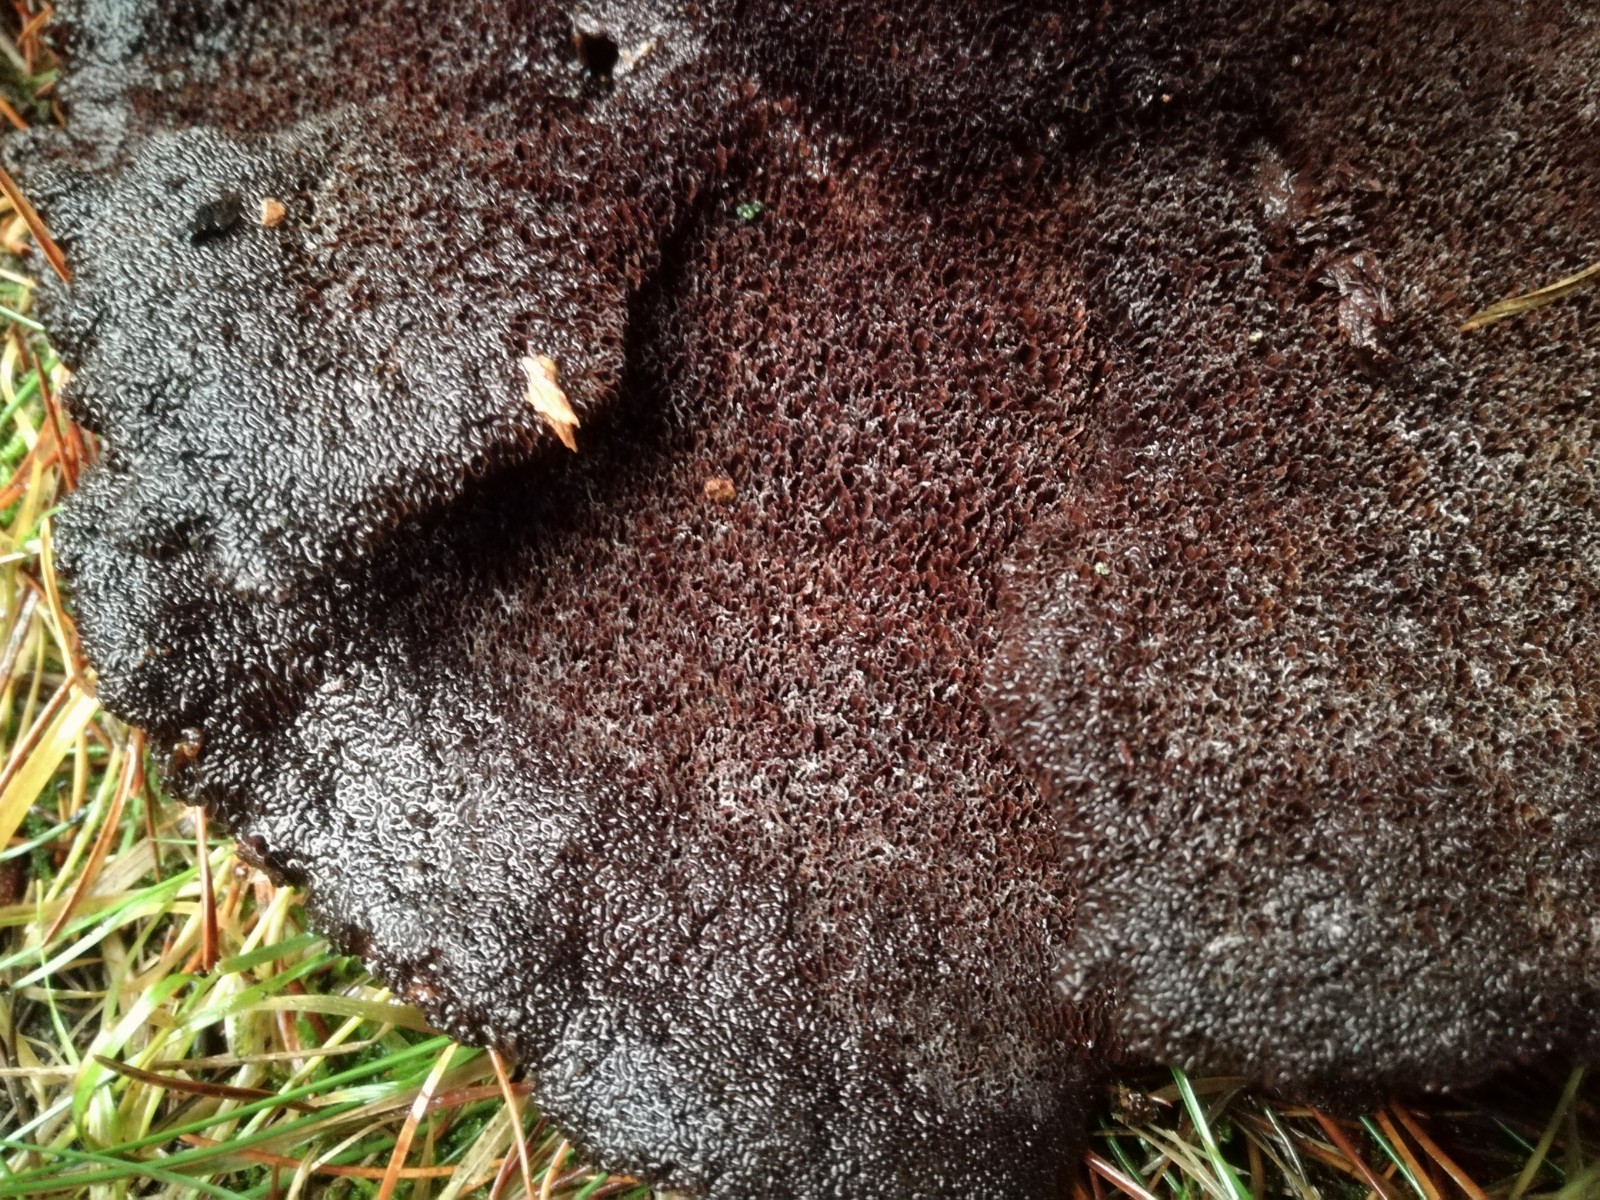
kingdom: Fungi
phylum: Basidiomycota
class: Agaricomycetes
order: Polyporales
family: Laetiporaceae
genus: Phaeolus
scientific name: Phaeolus schweinitzii
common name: brunporesvamp
